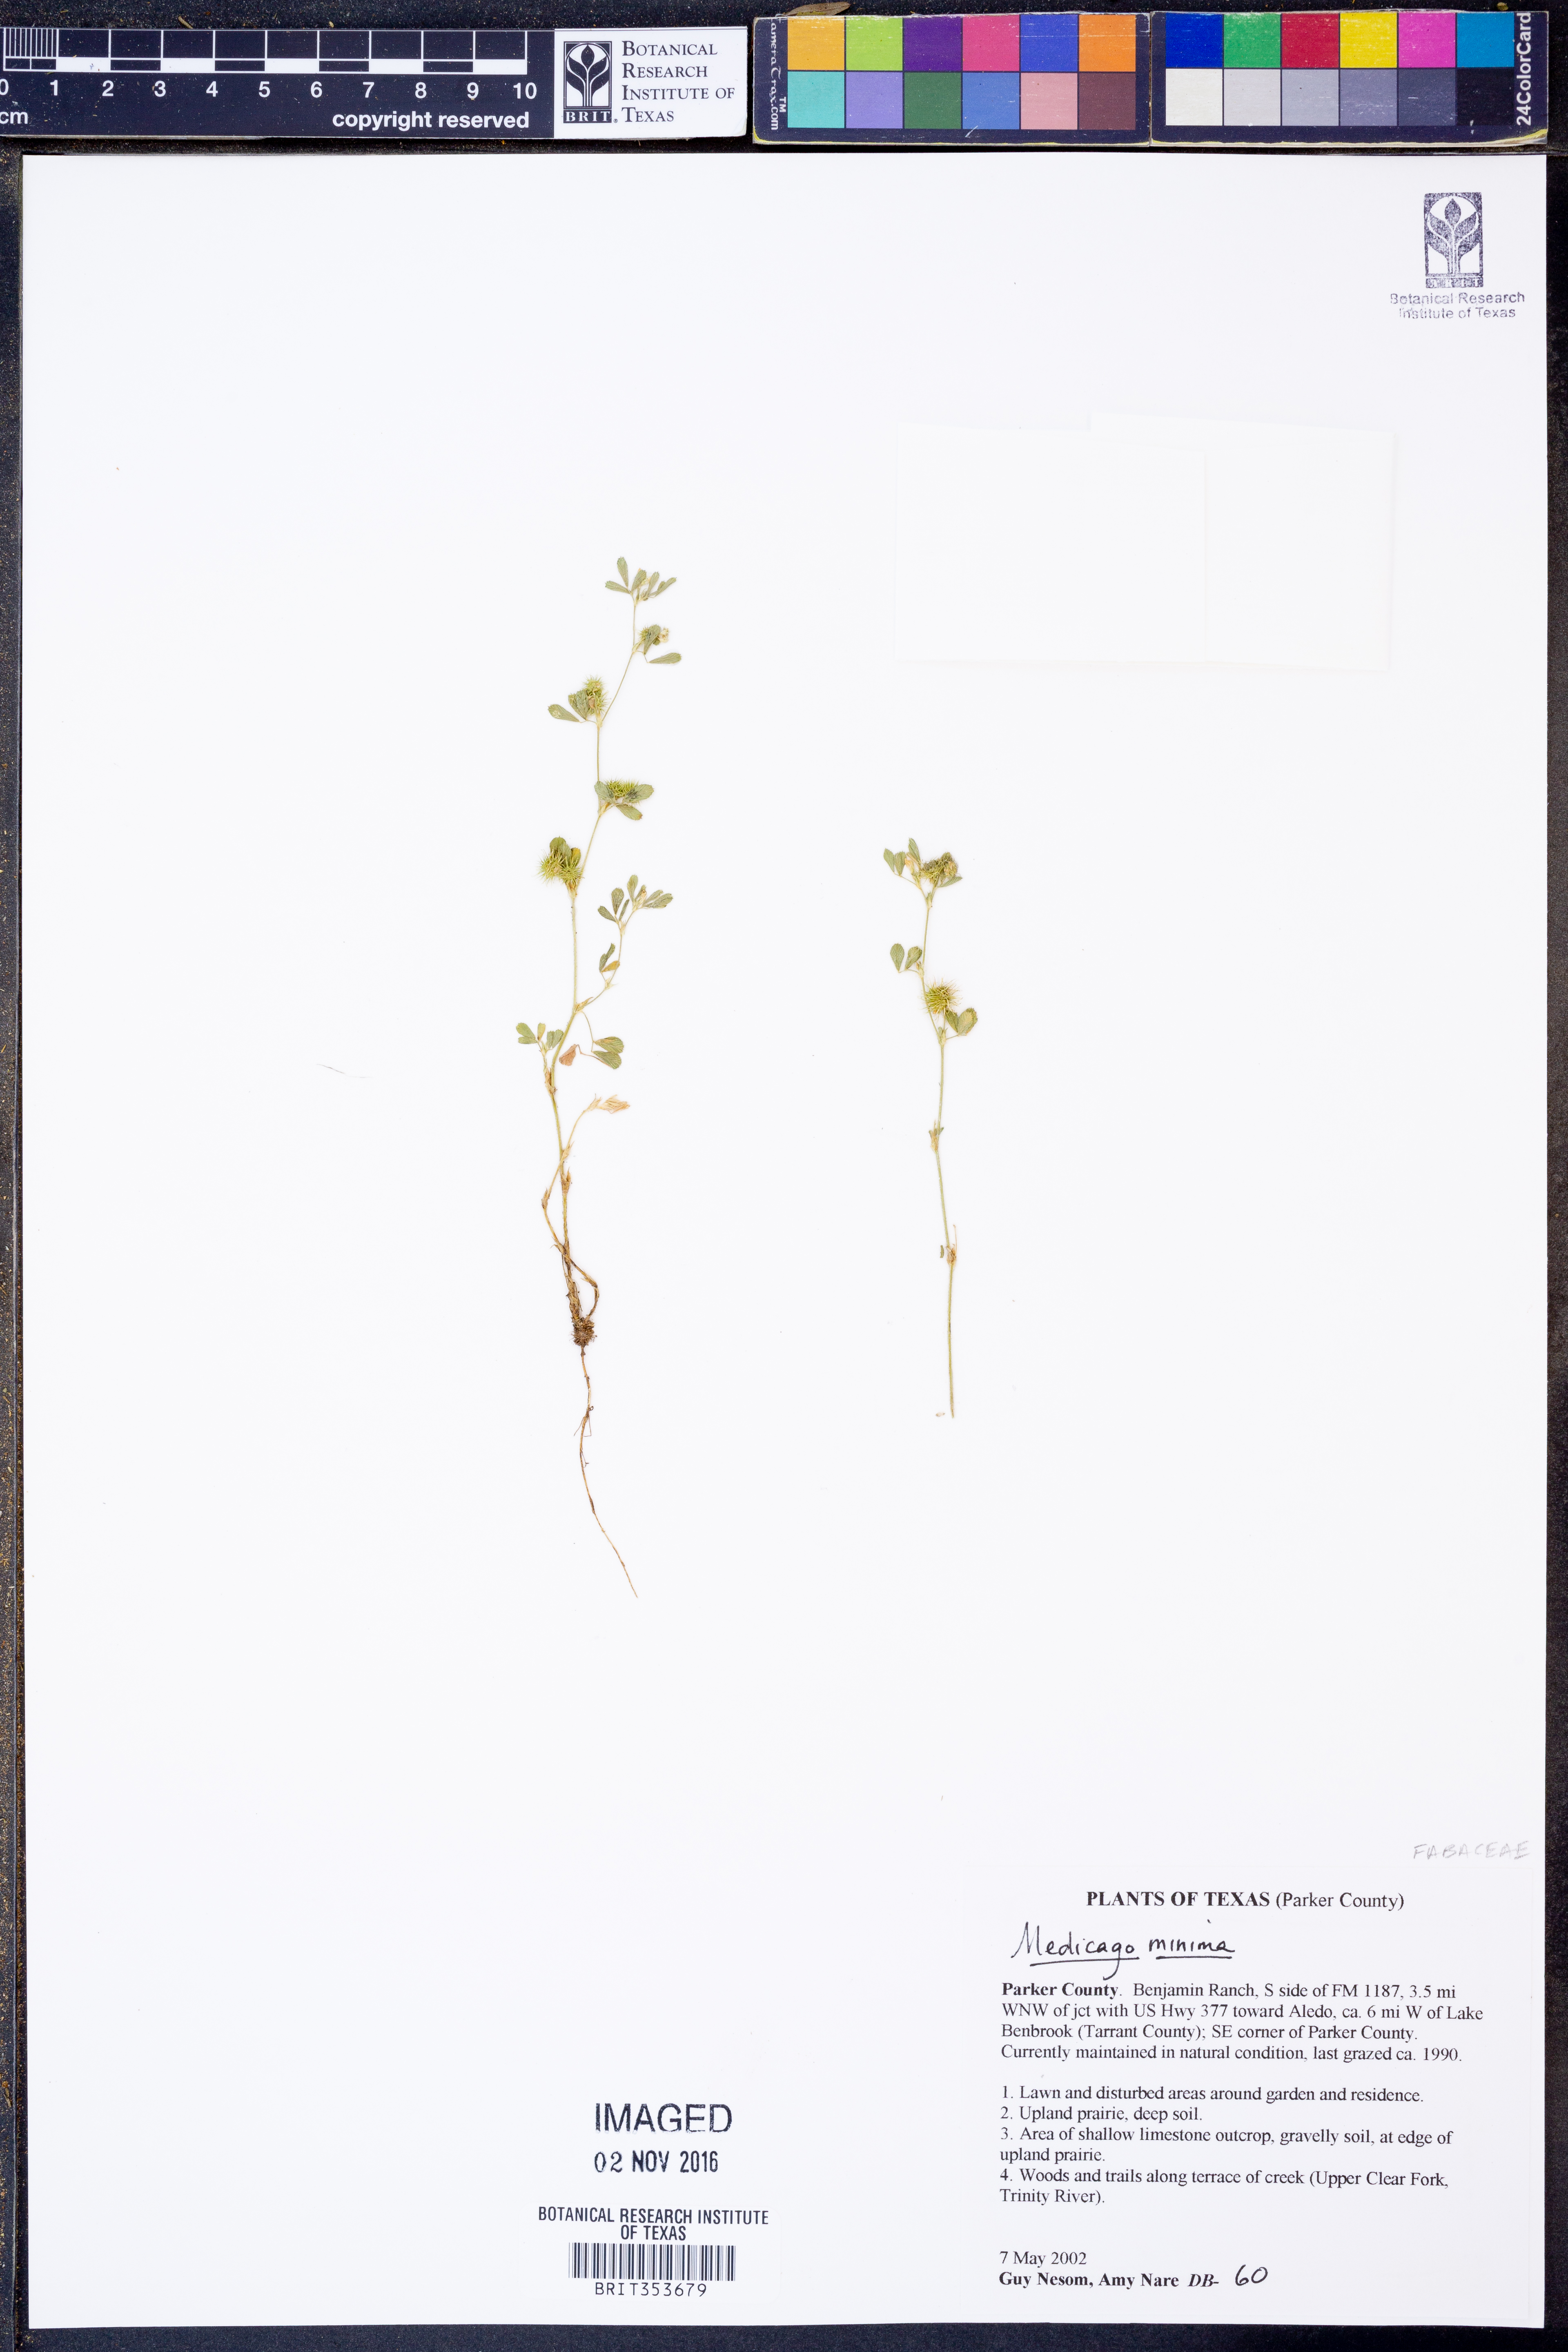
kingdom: Plantae
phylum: Tracheophyta
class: Magnoliopsida
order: Fabales
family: Fabaceae
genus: Medicago
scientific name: Medicago minima
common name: Little bur-clover
